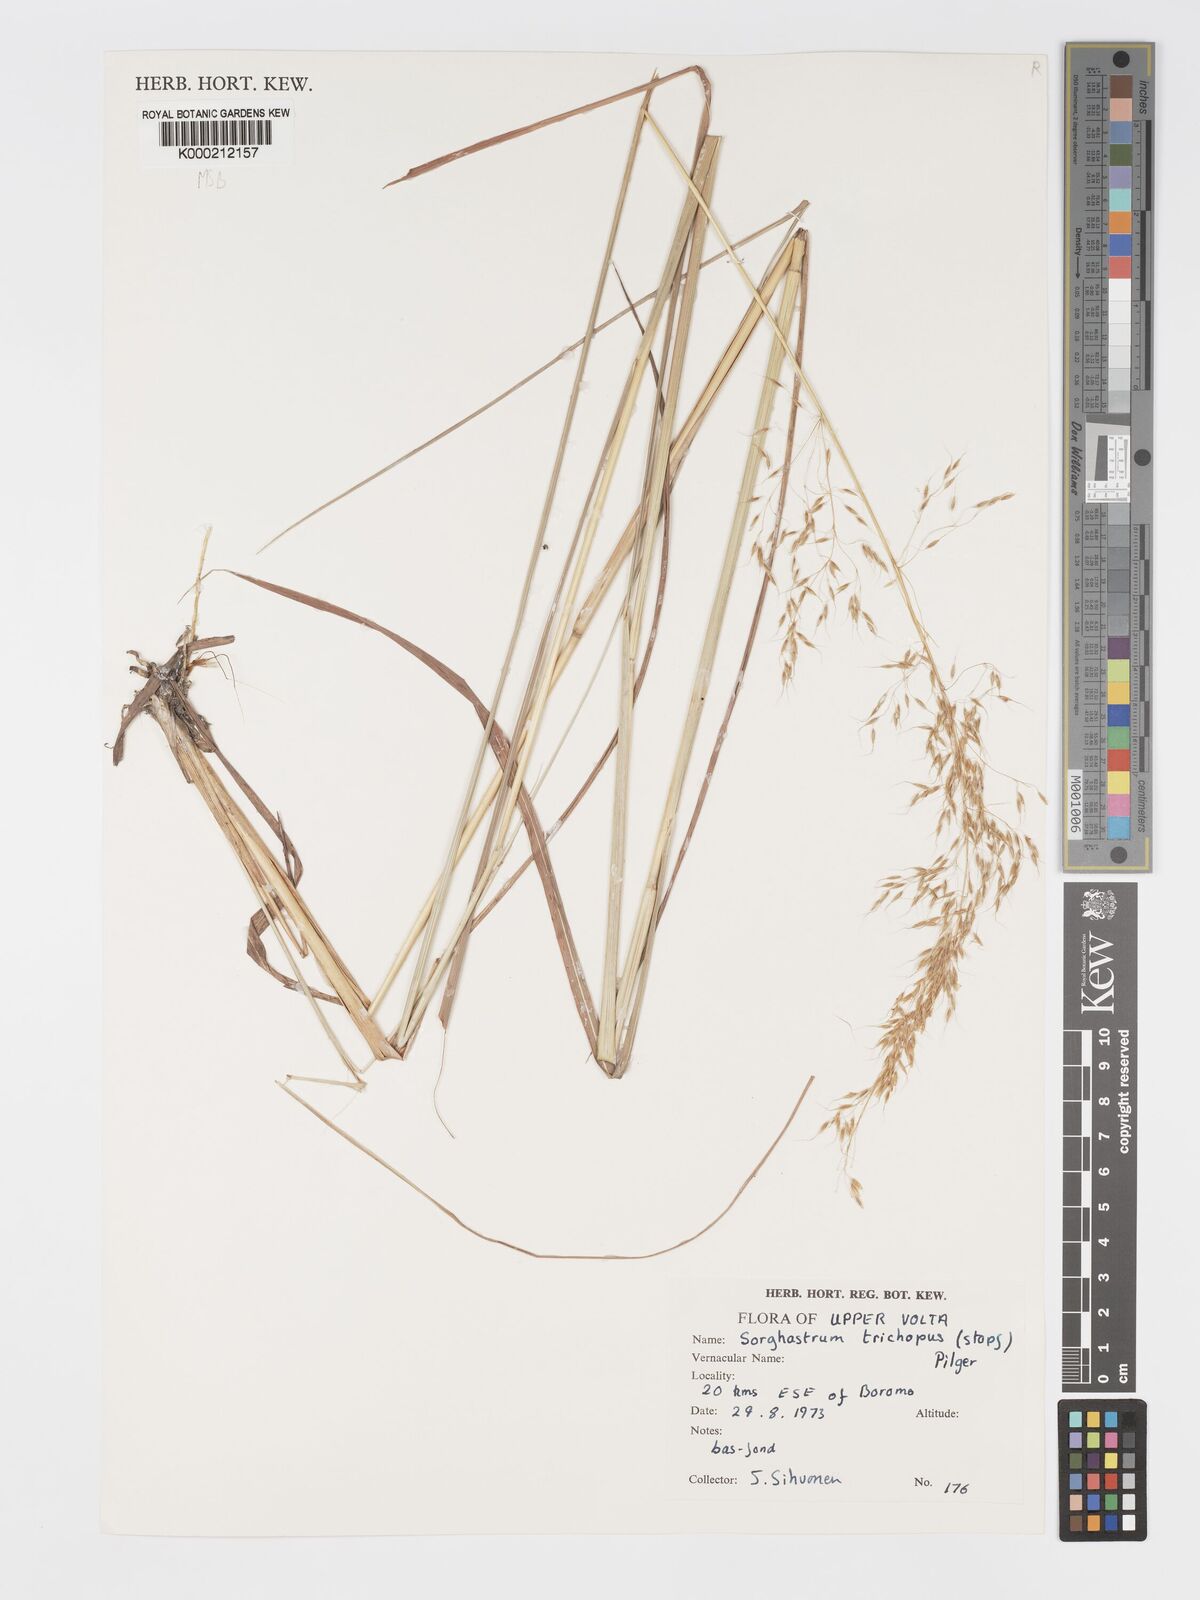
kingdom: Plantae
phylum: Tracheophyta
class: Liliopsida
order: Poales
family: Poaceae
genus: Sorghastrum
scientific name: Sorghastrum stipoides
